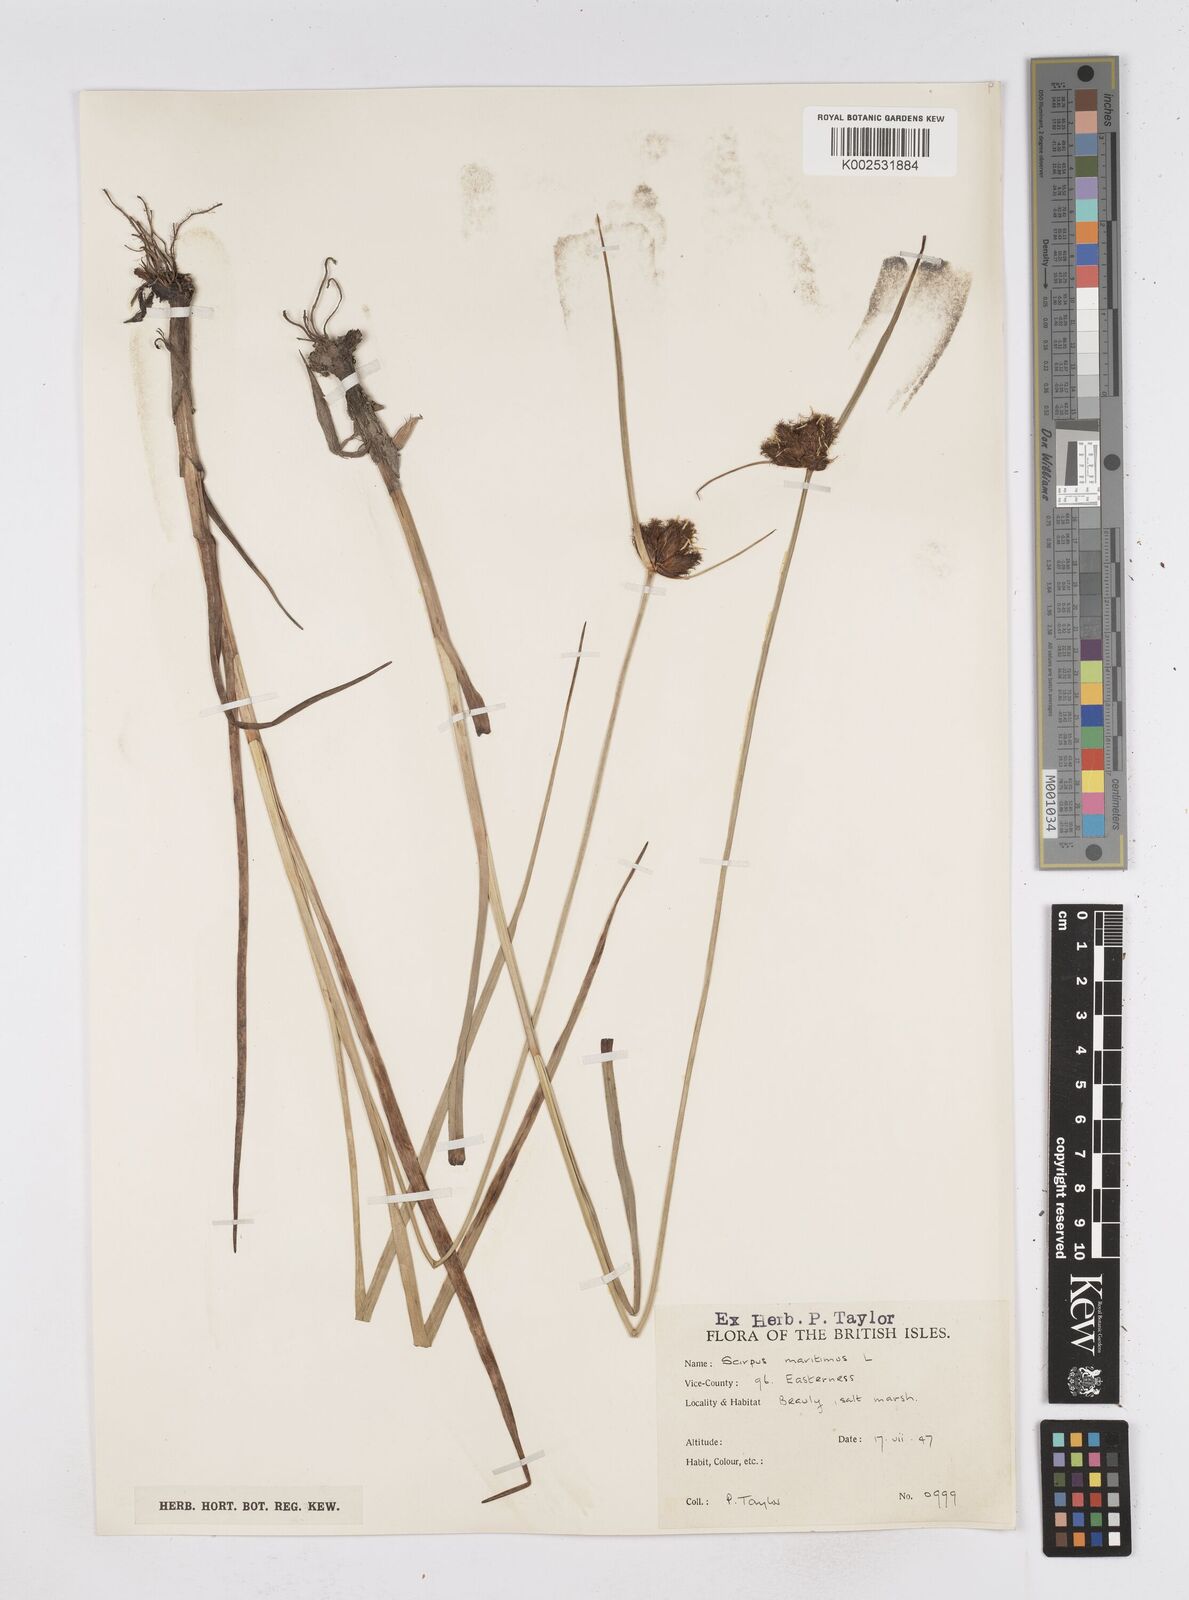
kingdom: Plantae
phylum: Tracheophyta
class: Liliopsida
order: Poales
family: Cyperaceae
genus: Bolboschoenus
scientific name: Bolboschoenus maritimus
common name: Sea club-rush
